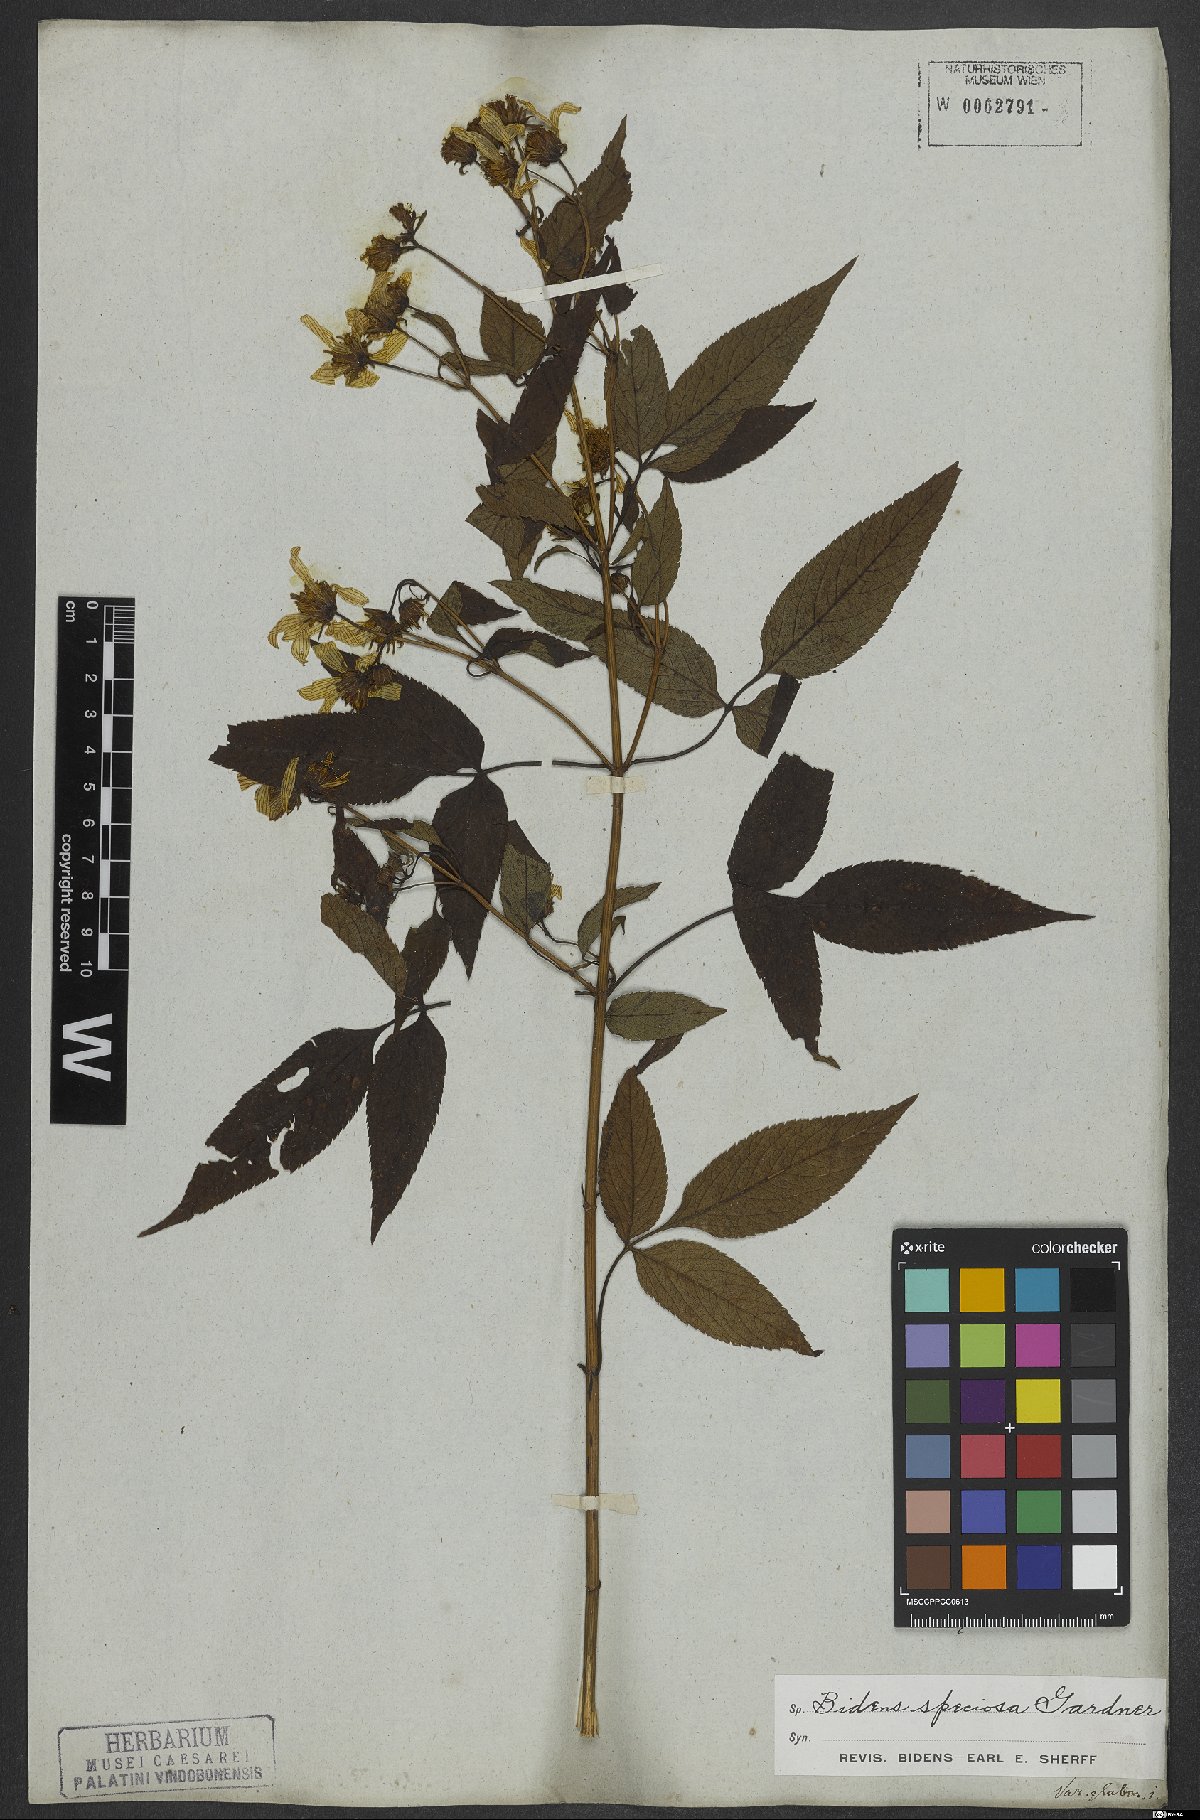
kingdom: Plantae
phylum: Tracheophyta
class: Magnoliopsida
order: Asterales
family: Asteraceae
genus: Bidens
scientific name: Bidens segetum
